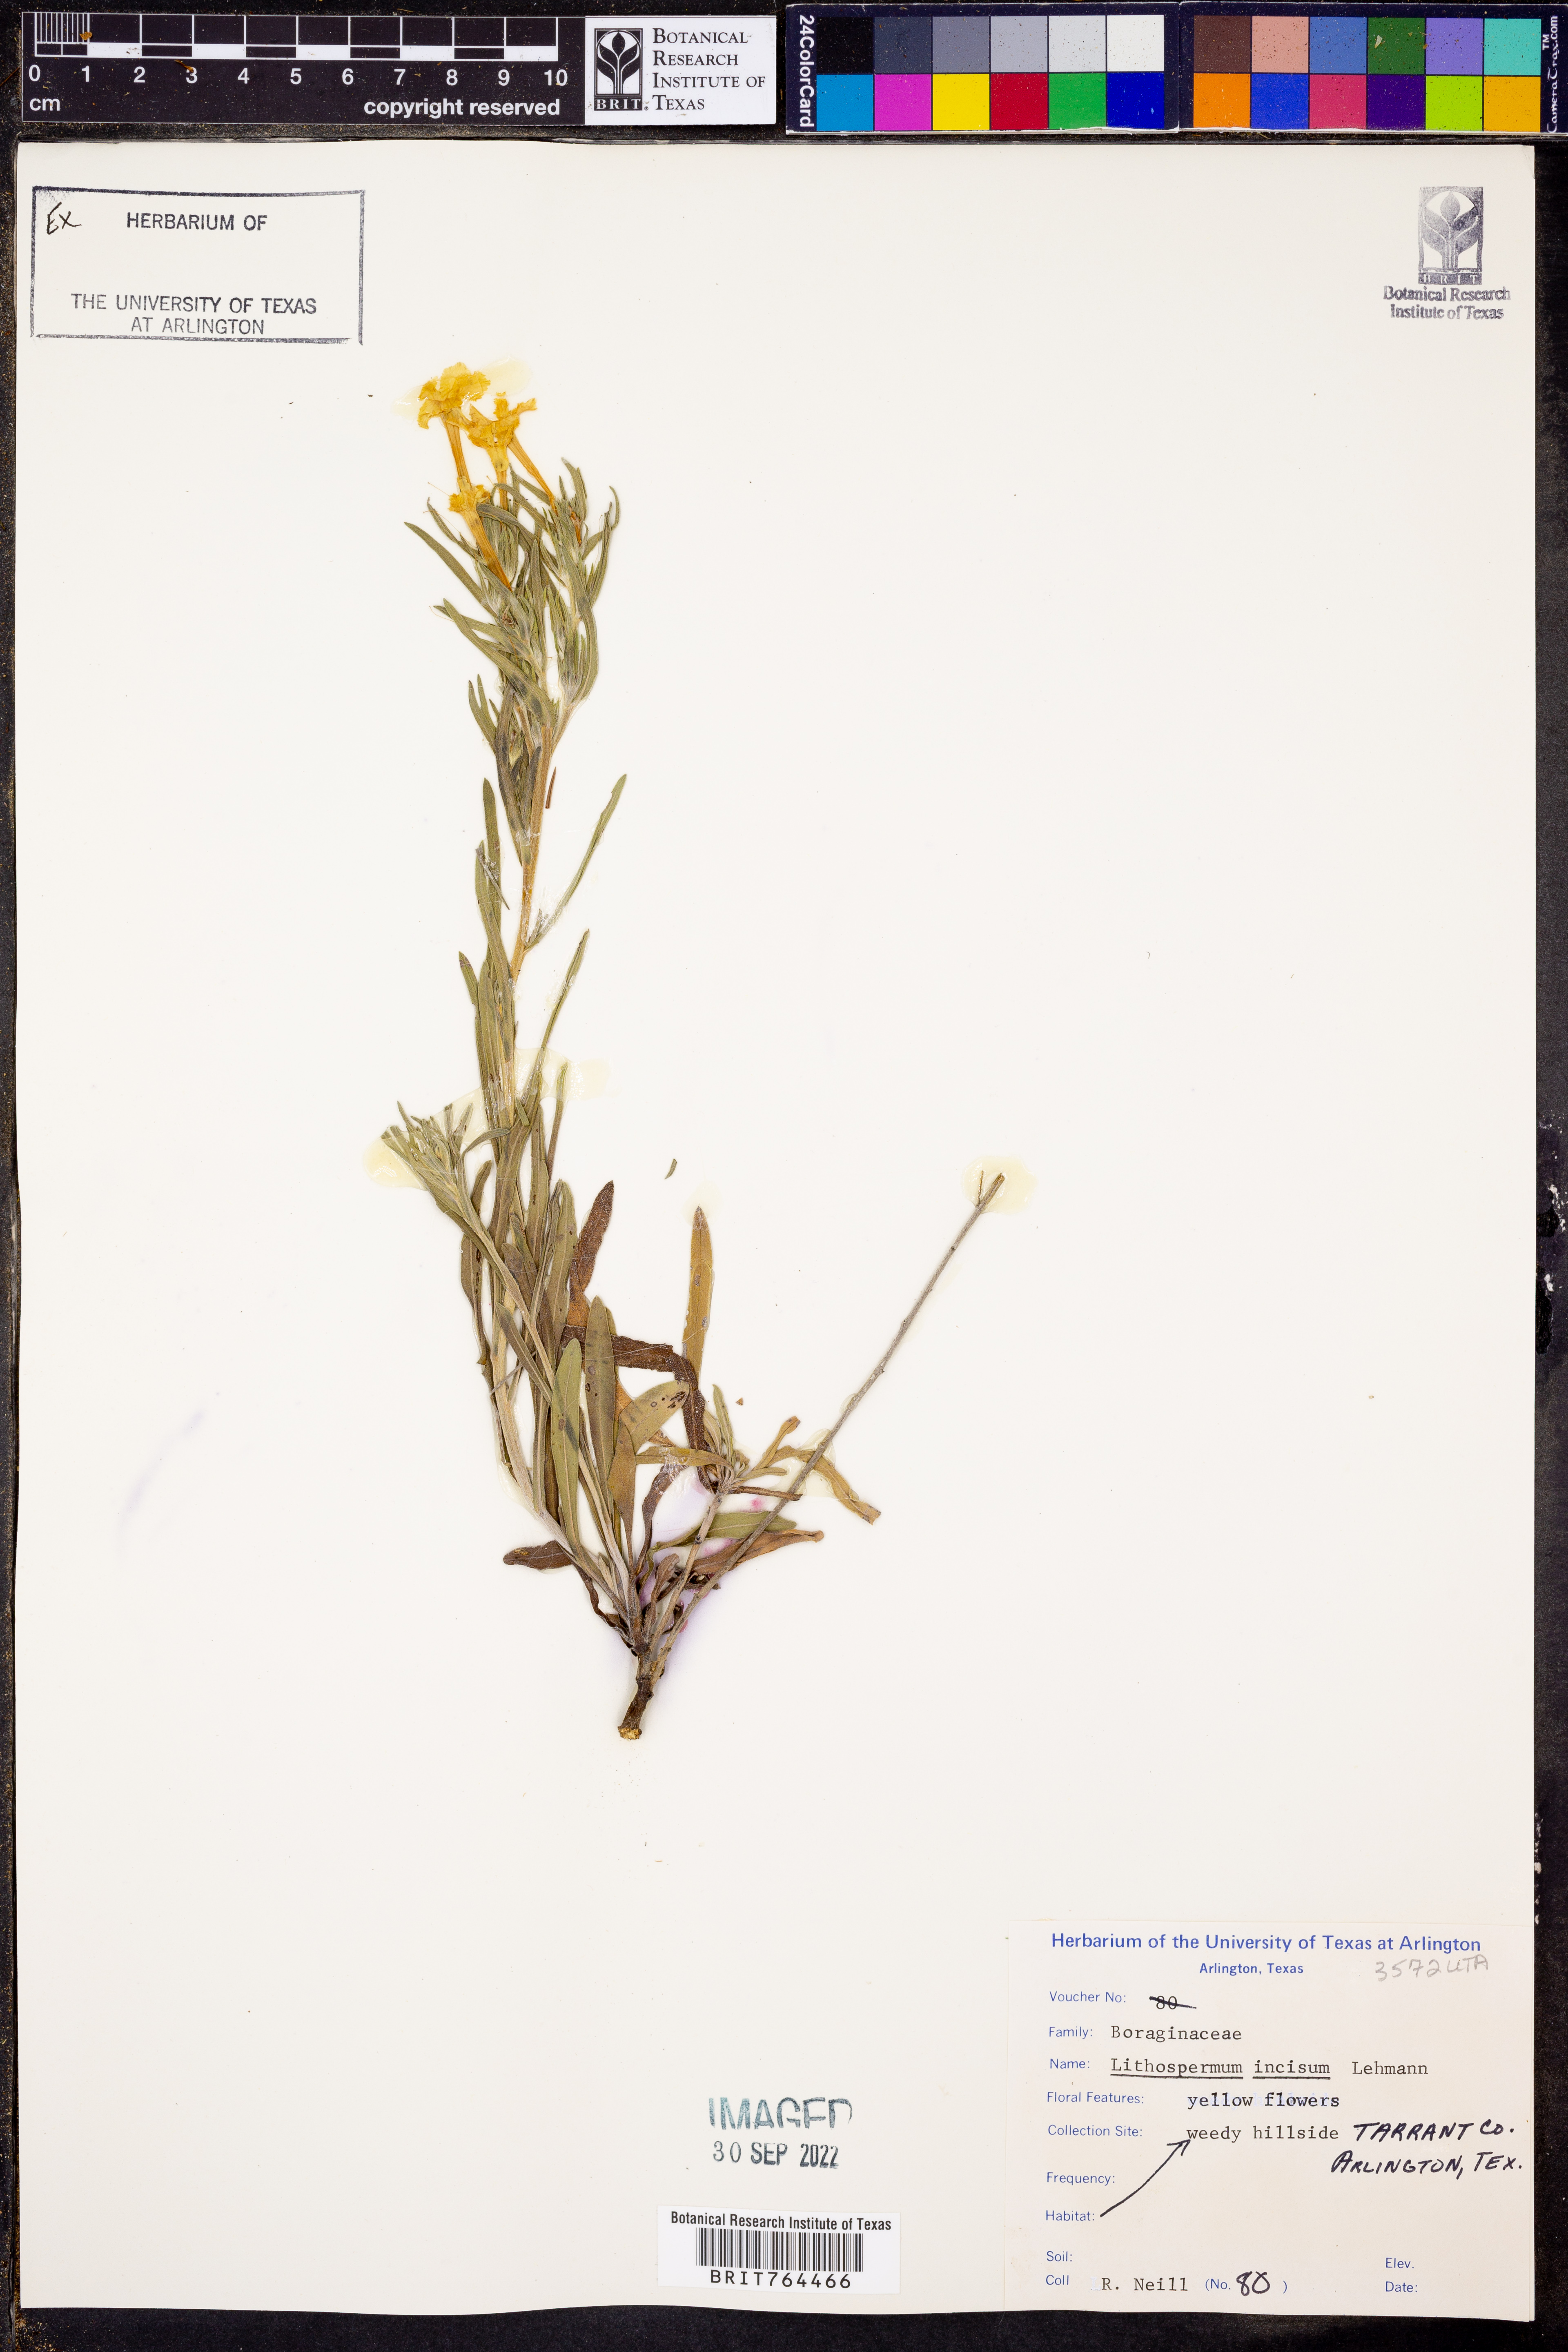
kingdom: Plantae
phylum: Tracheophyta
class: Magnoliopsida
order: Boraginales
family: Boraginaceae
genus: Lithospermum
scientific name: Lithospermum incisum
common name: Fringed gromwell
